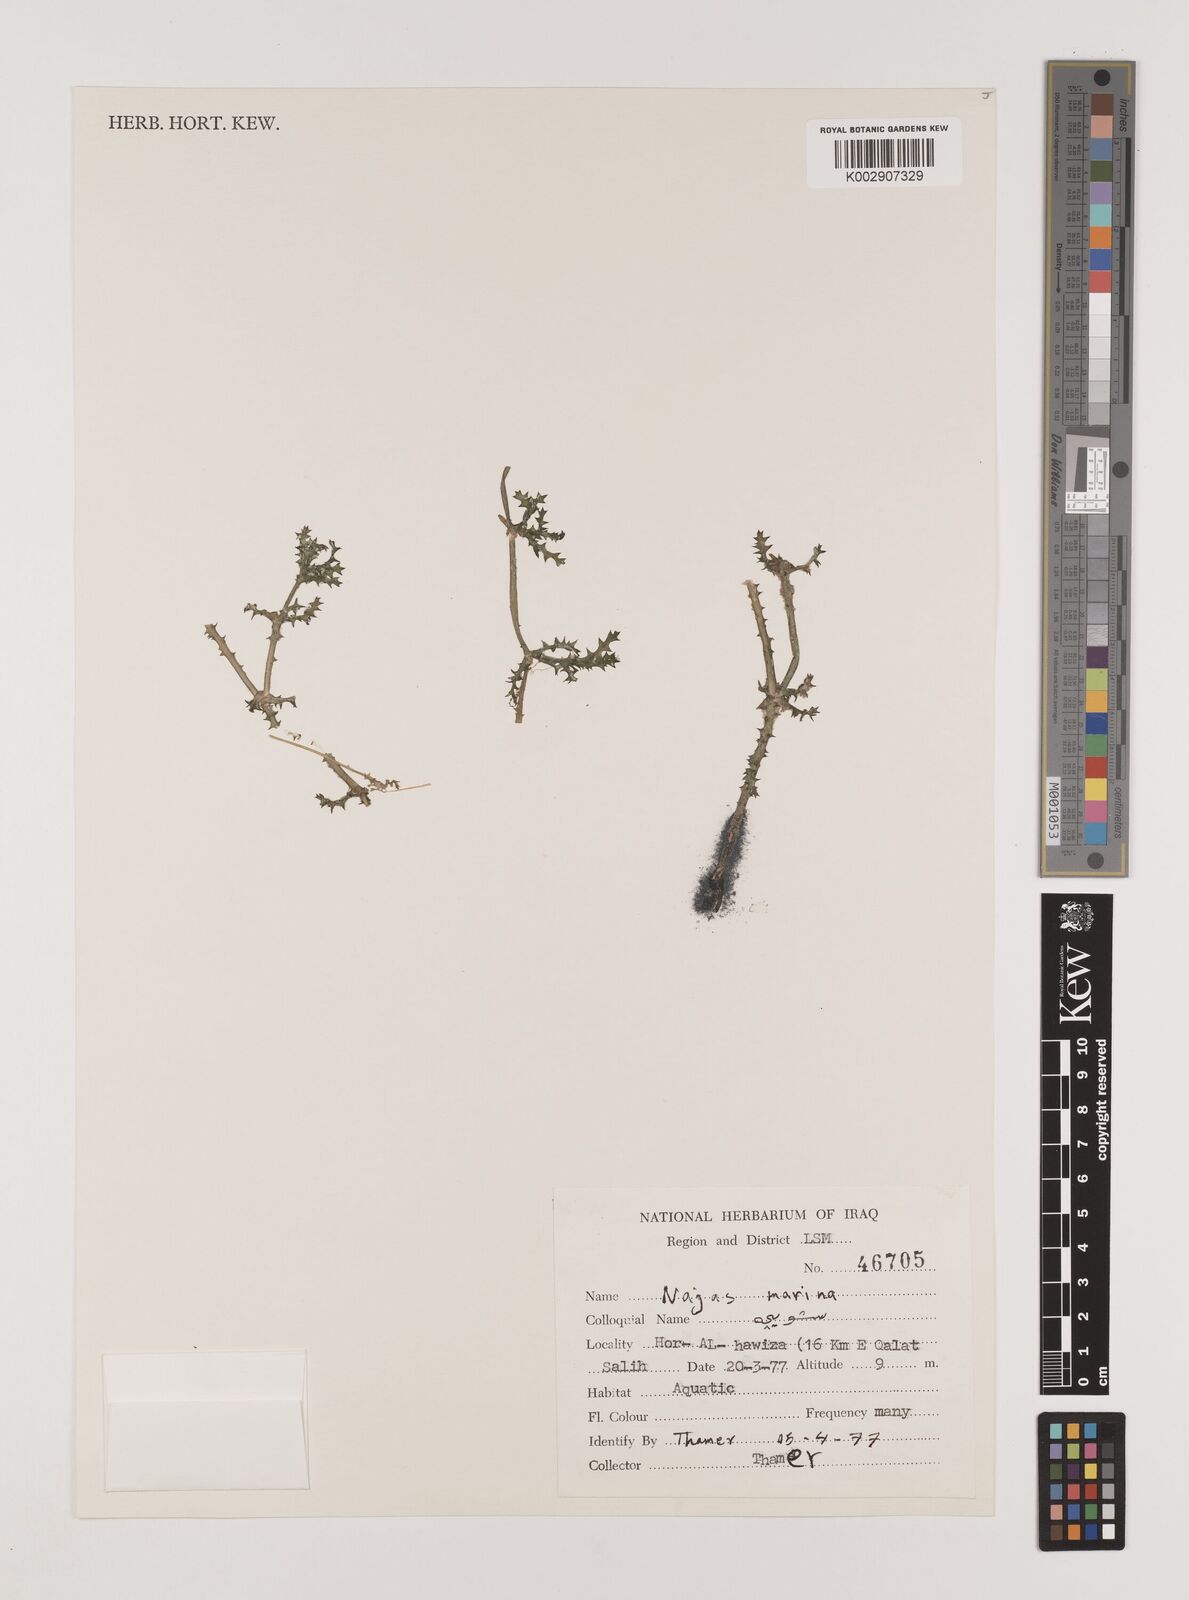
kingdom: Plantae
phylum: Tracheophyta
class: Liliopsida
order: Alismatales
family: Hydrocharitaceae
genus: Najas
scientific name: Najas marina
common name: Holly-leaved naiad
